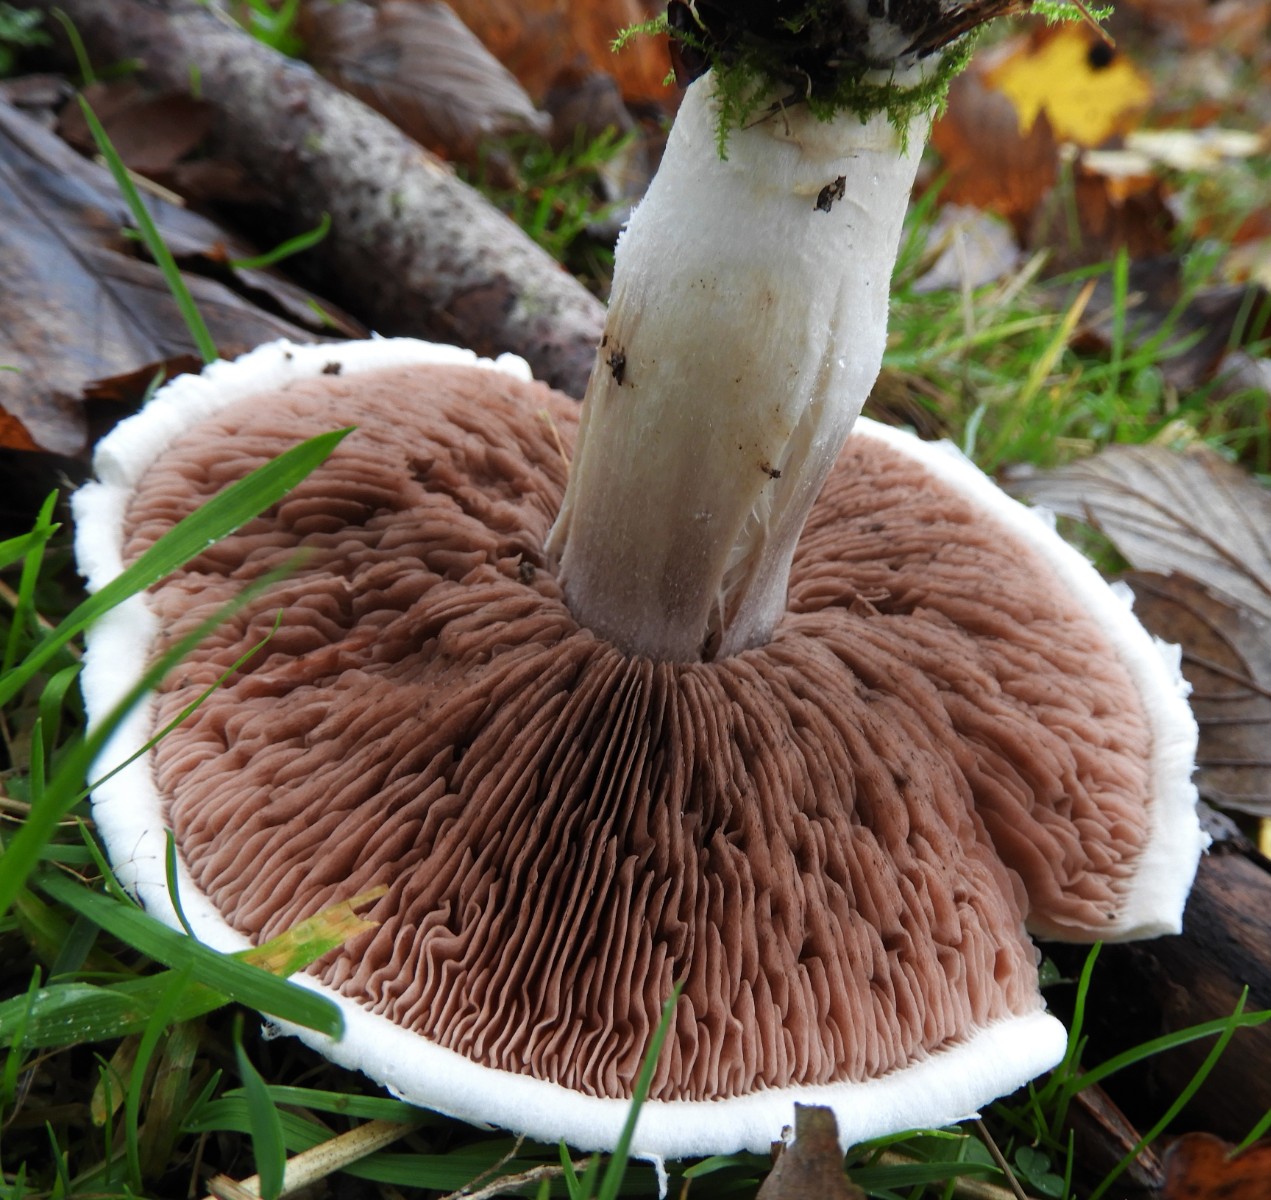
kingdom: Fungi
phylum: Basidiomycota
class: Agaricomycetes
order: Agaricales
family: Agaricaceae
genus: Agaricus
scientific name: Agaricus campestris
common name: mark-champignon
